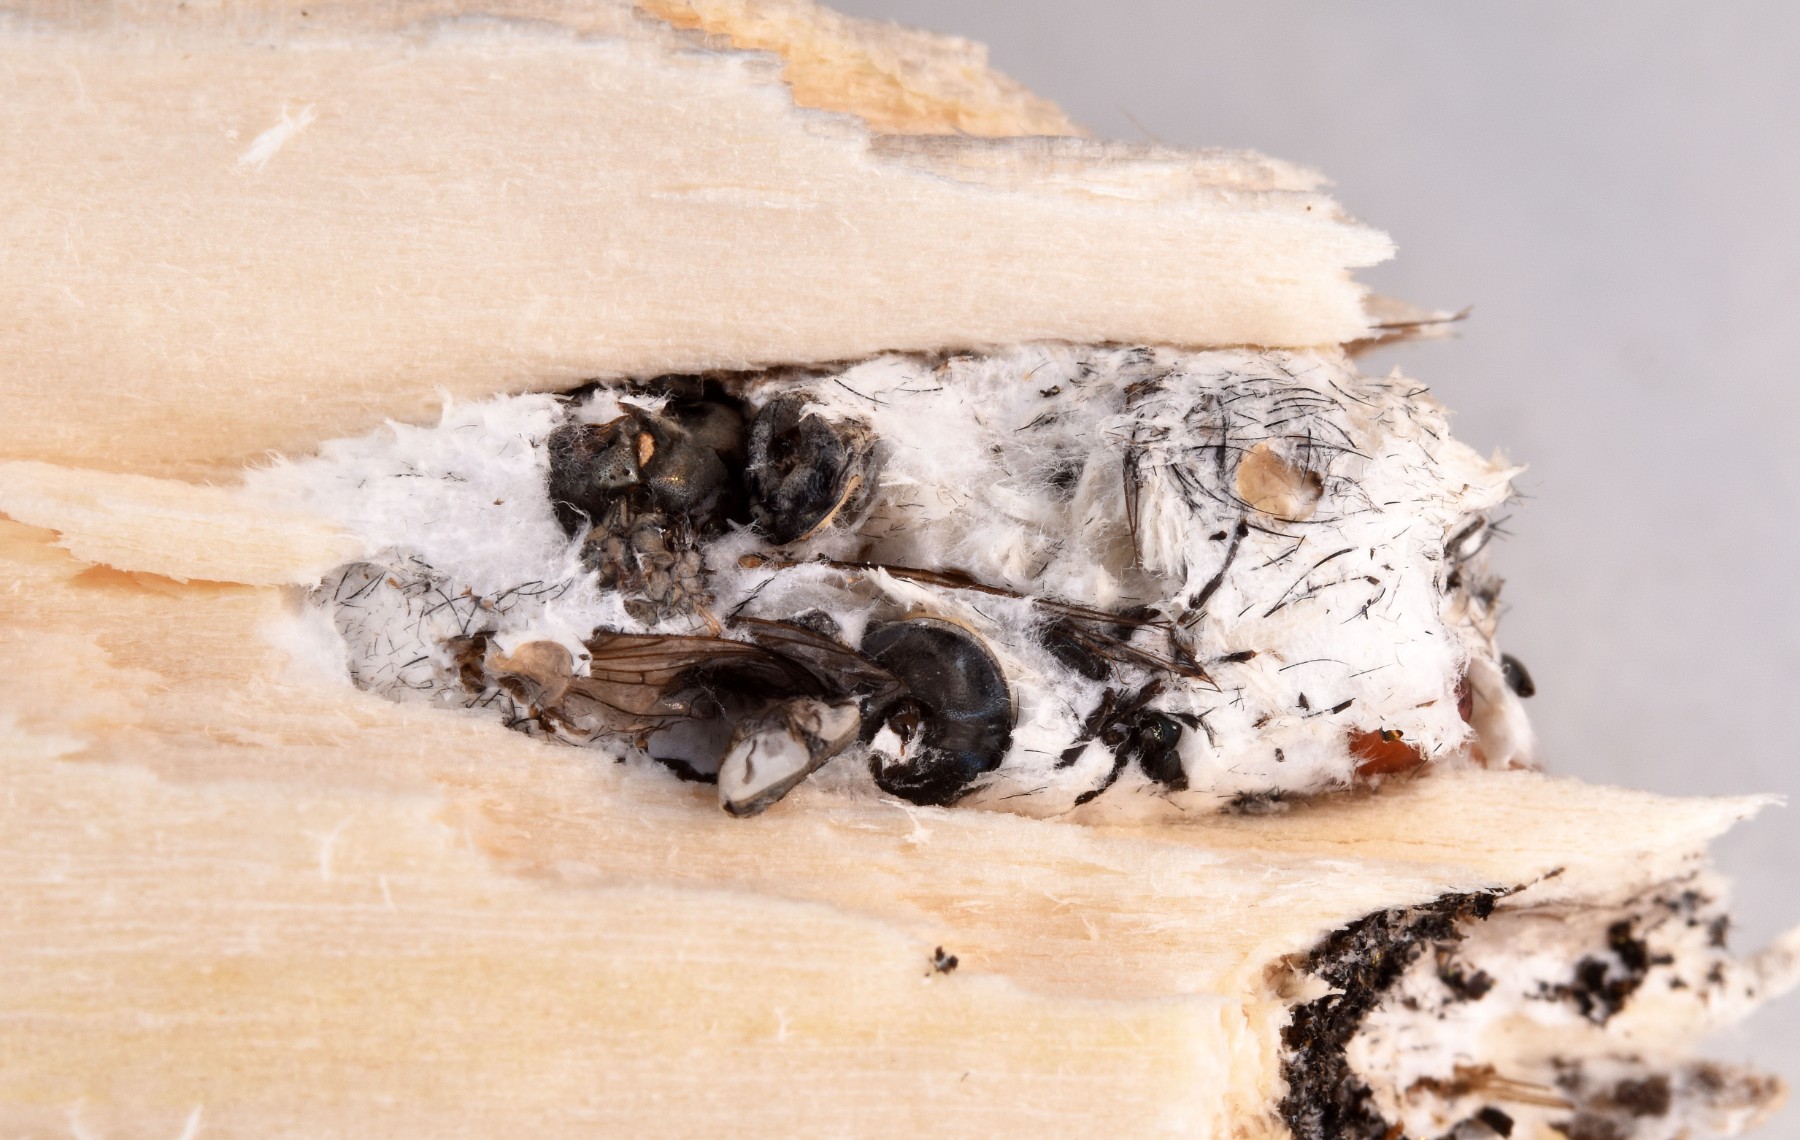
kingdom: Fungi
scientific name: Fungi
